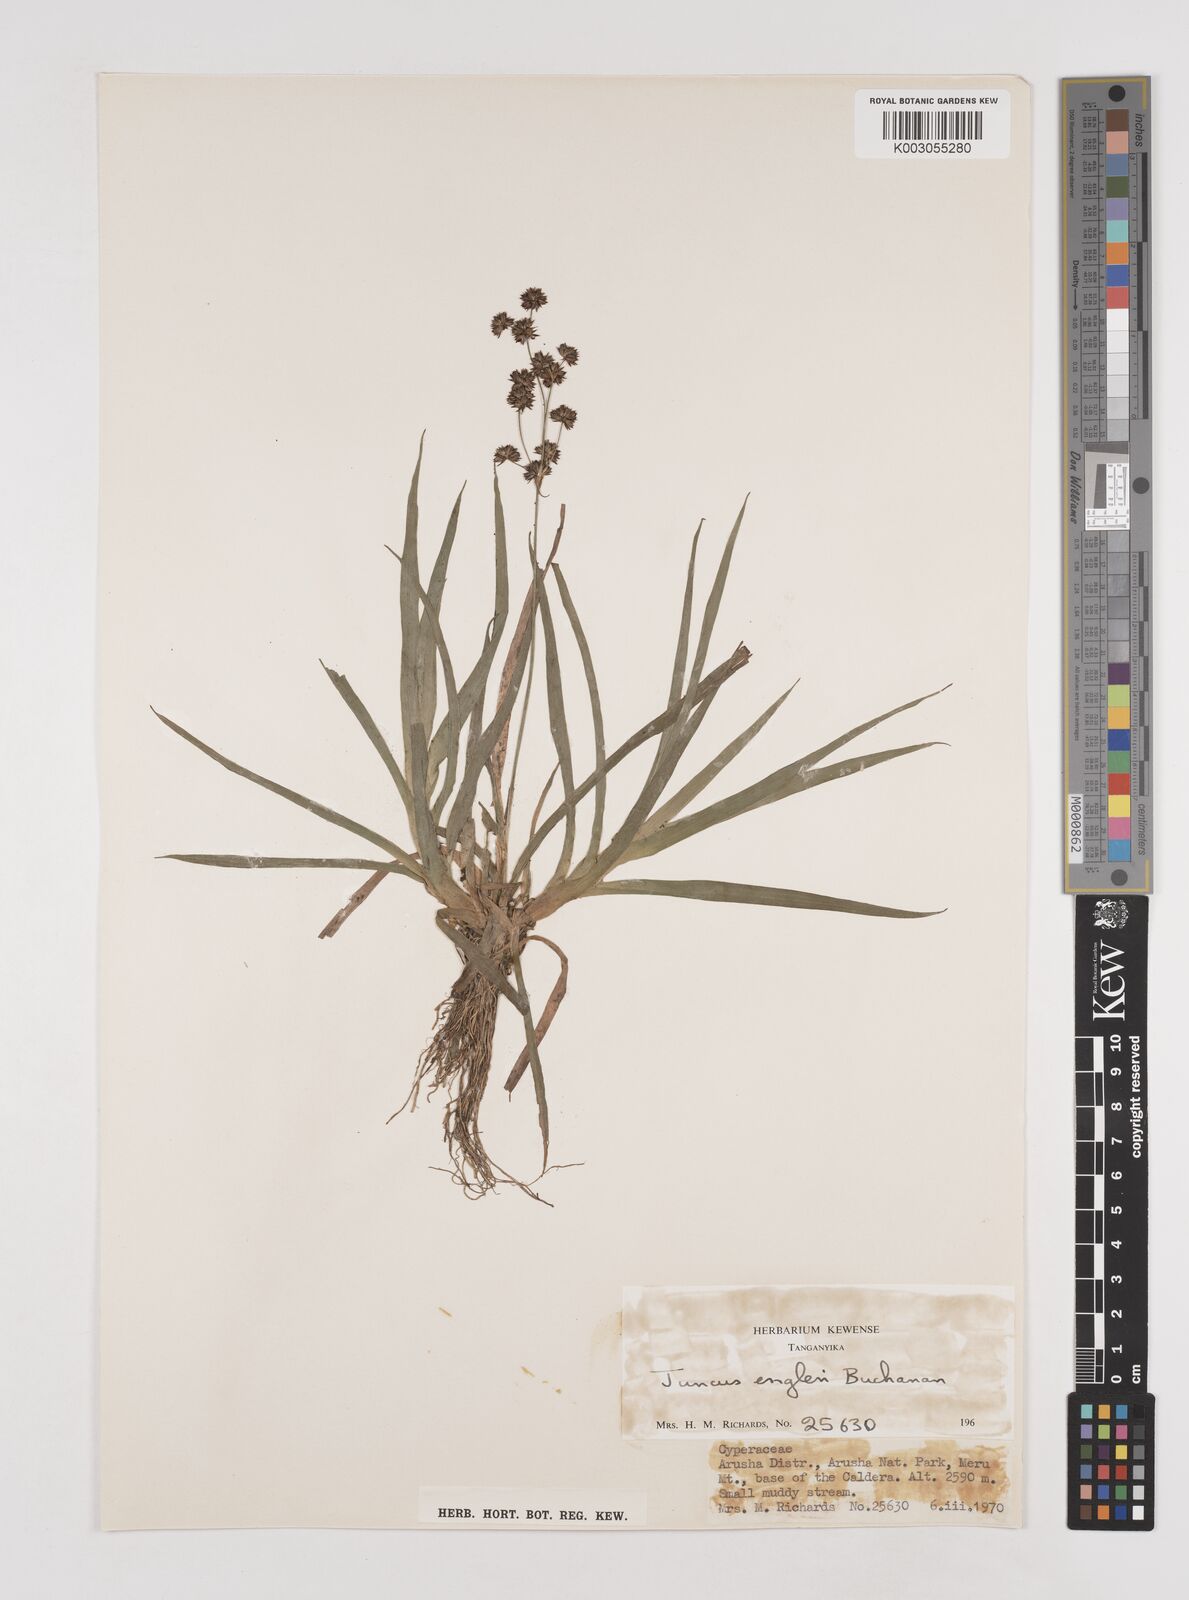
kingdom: Plantae
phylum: Tracheophyta
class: Liliopsida
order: Poales
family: Juncaceae
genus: Juncus
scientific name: Juncus engleri
